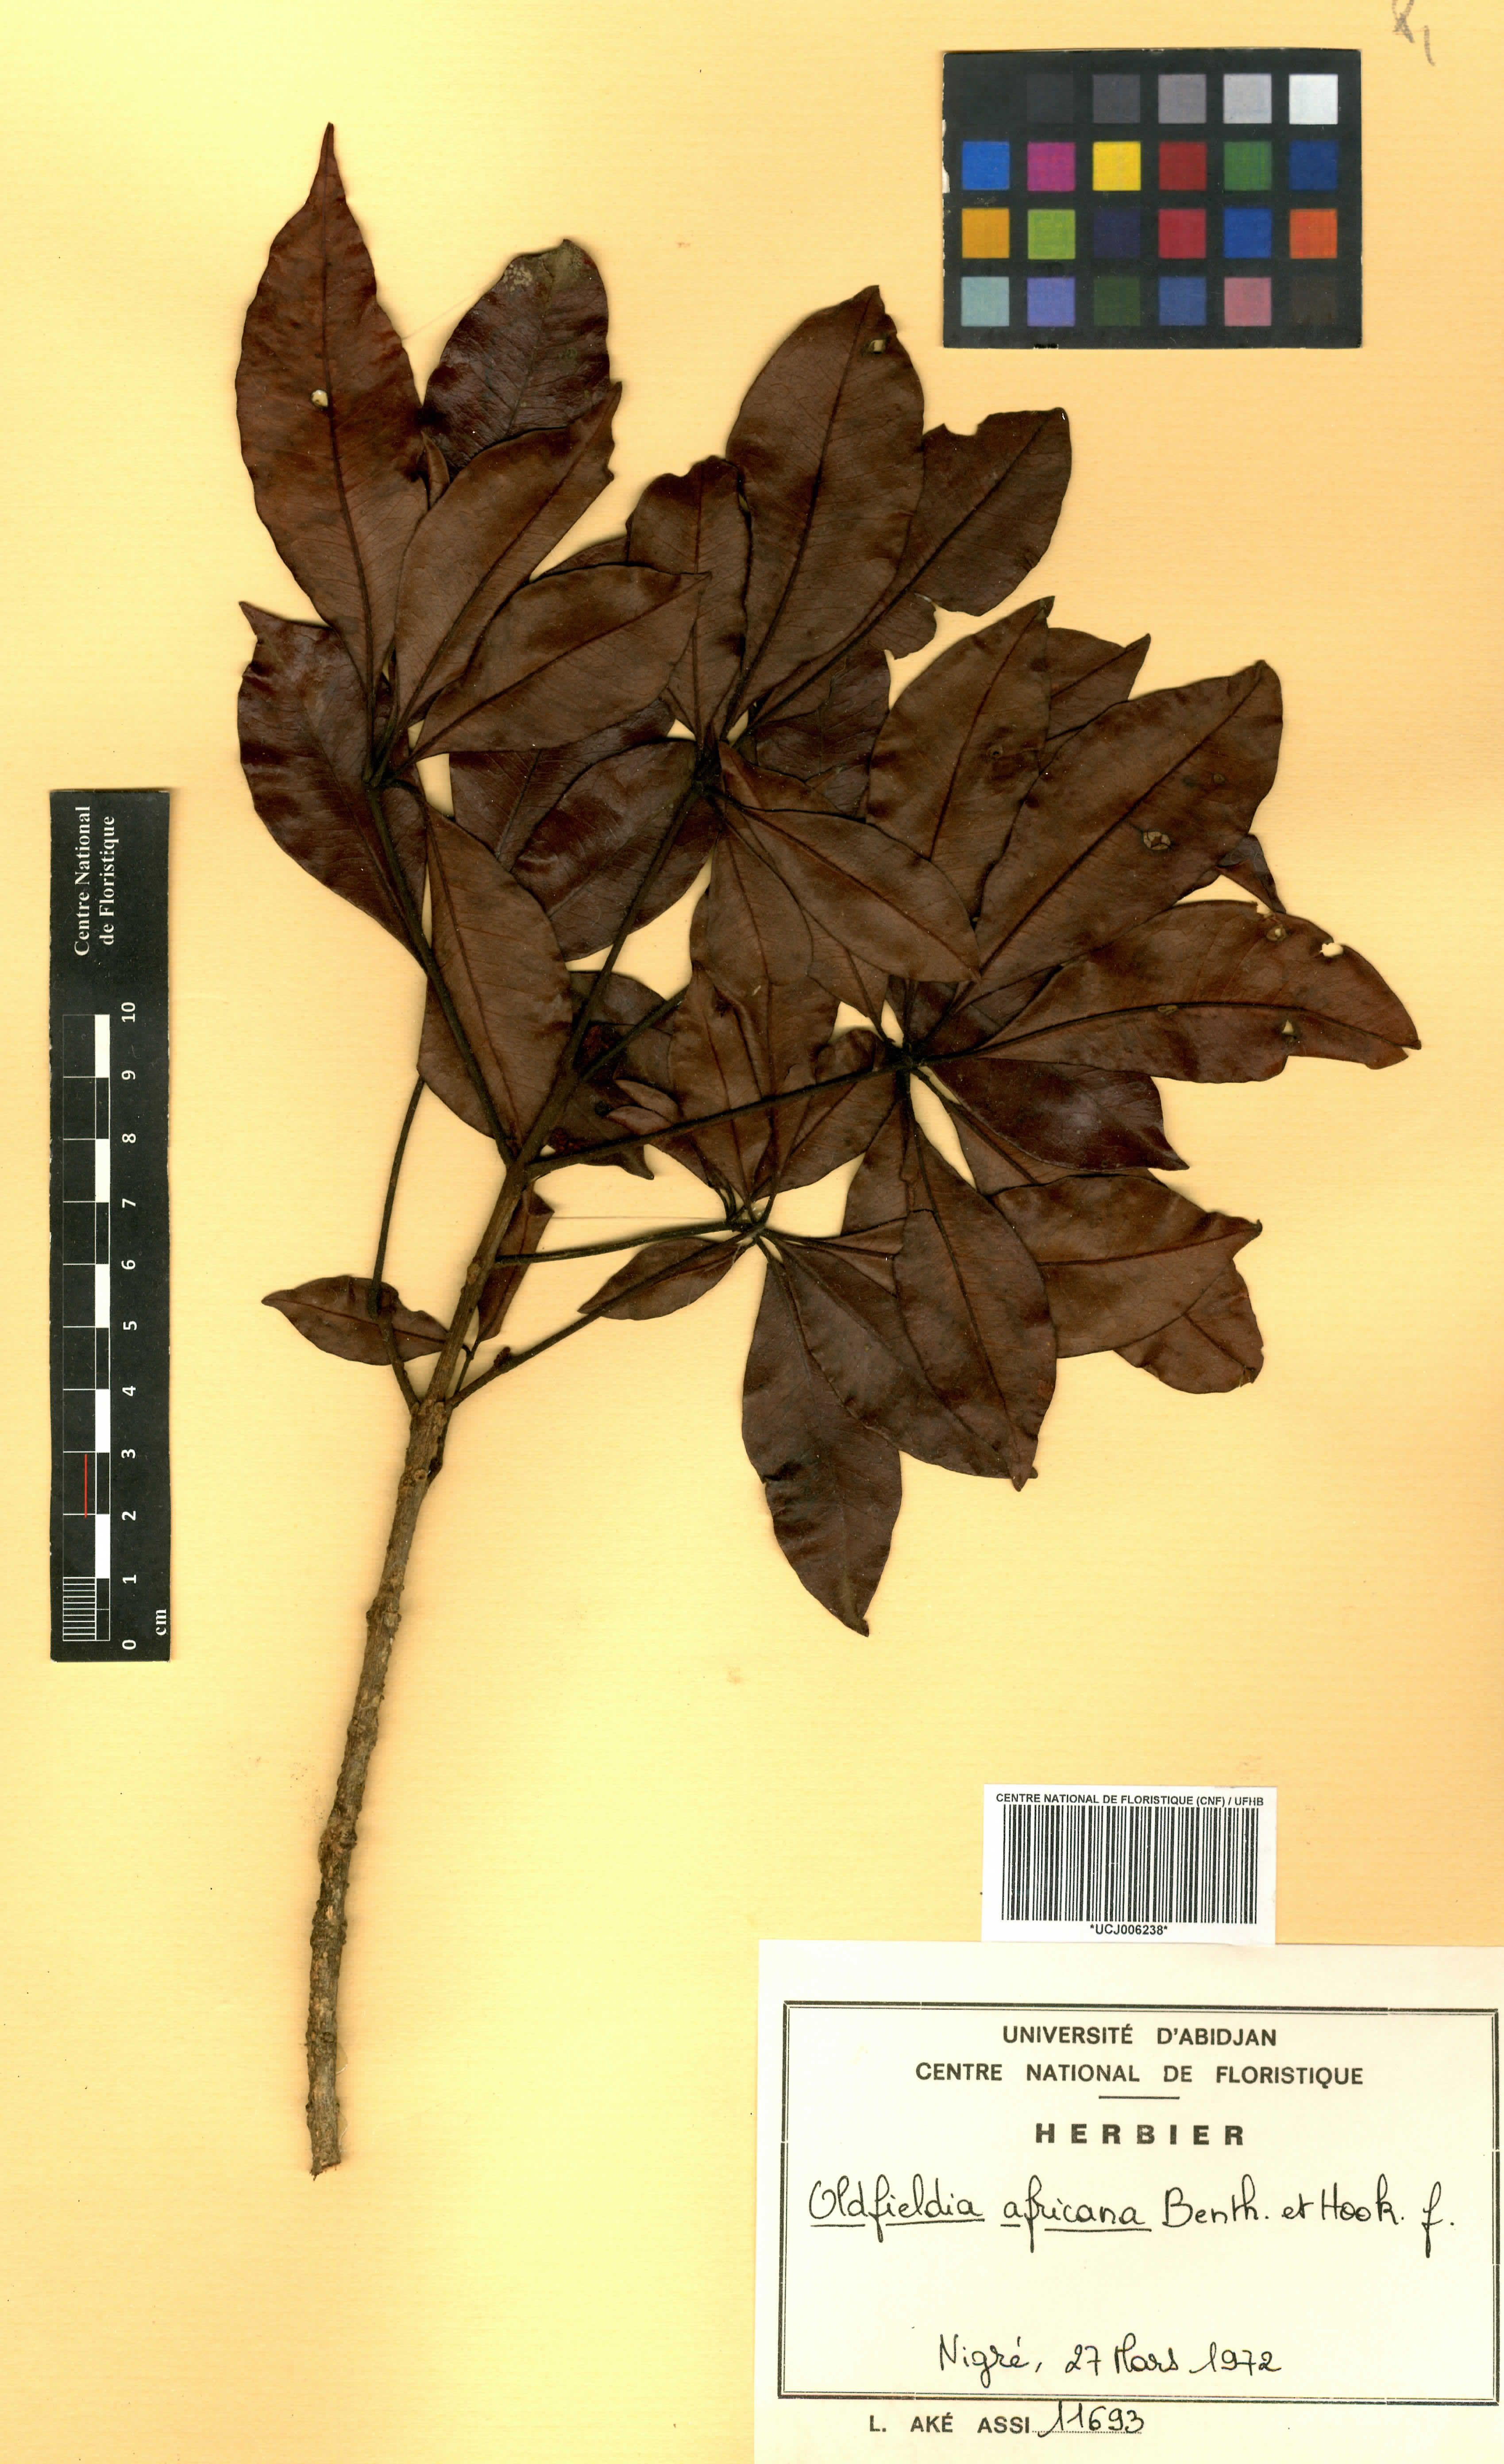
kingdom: Plantae
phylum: Tracheophyta
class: Magnoliopsida
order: Malpighiales
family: Picrodendraceae
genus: Oldfieldia
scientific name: Oldfieldia africana
